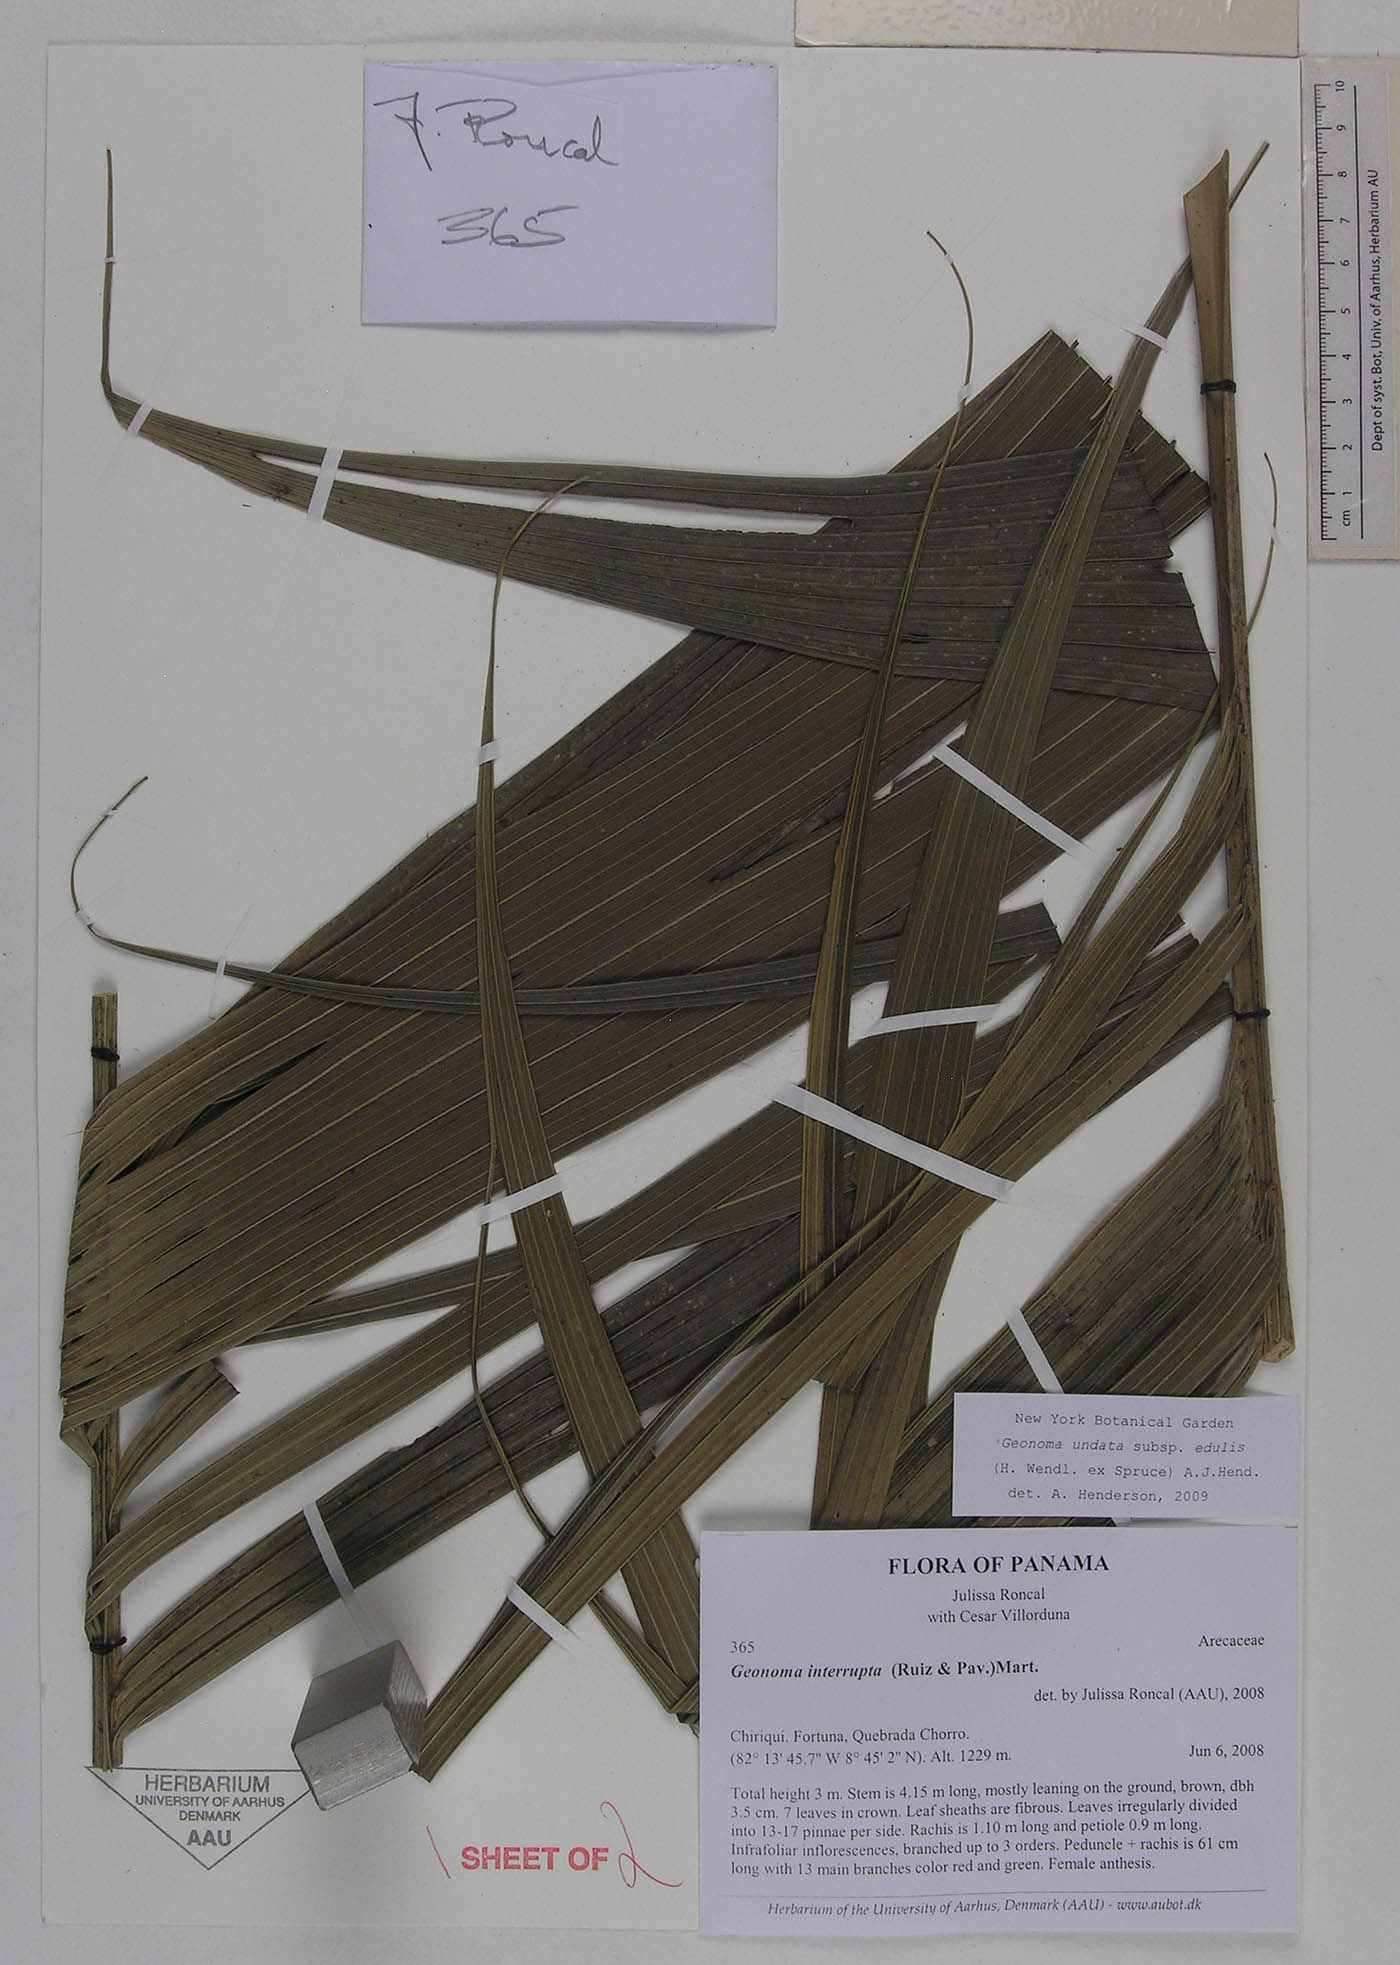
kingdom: Plantae
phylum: Tracheophyta
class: Liliopsida
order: Arecales
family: Arecaceae
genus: Geonoma
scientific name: Geonoma undata
